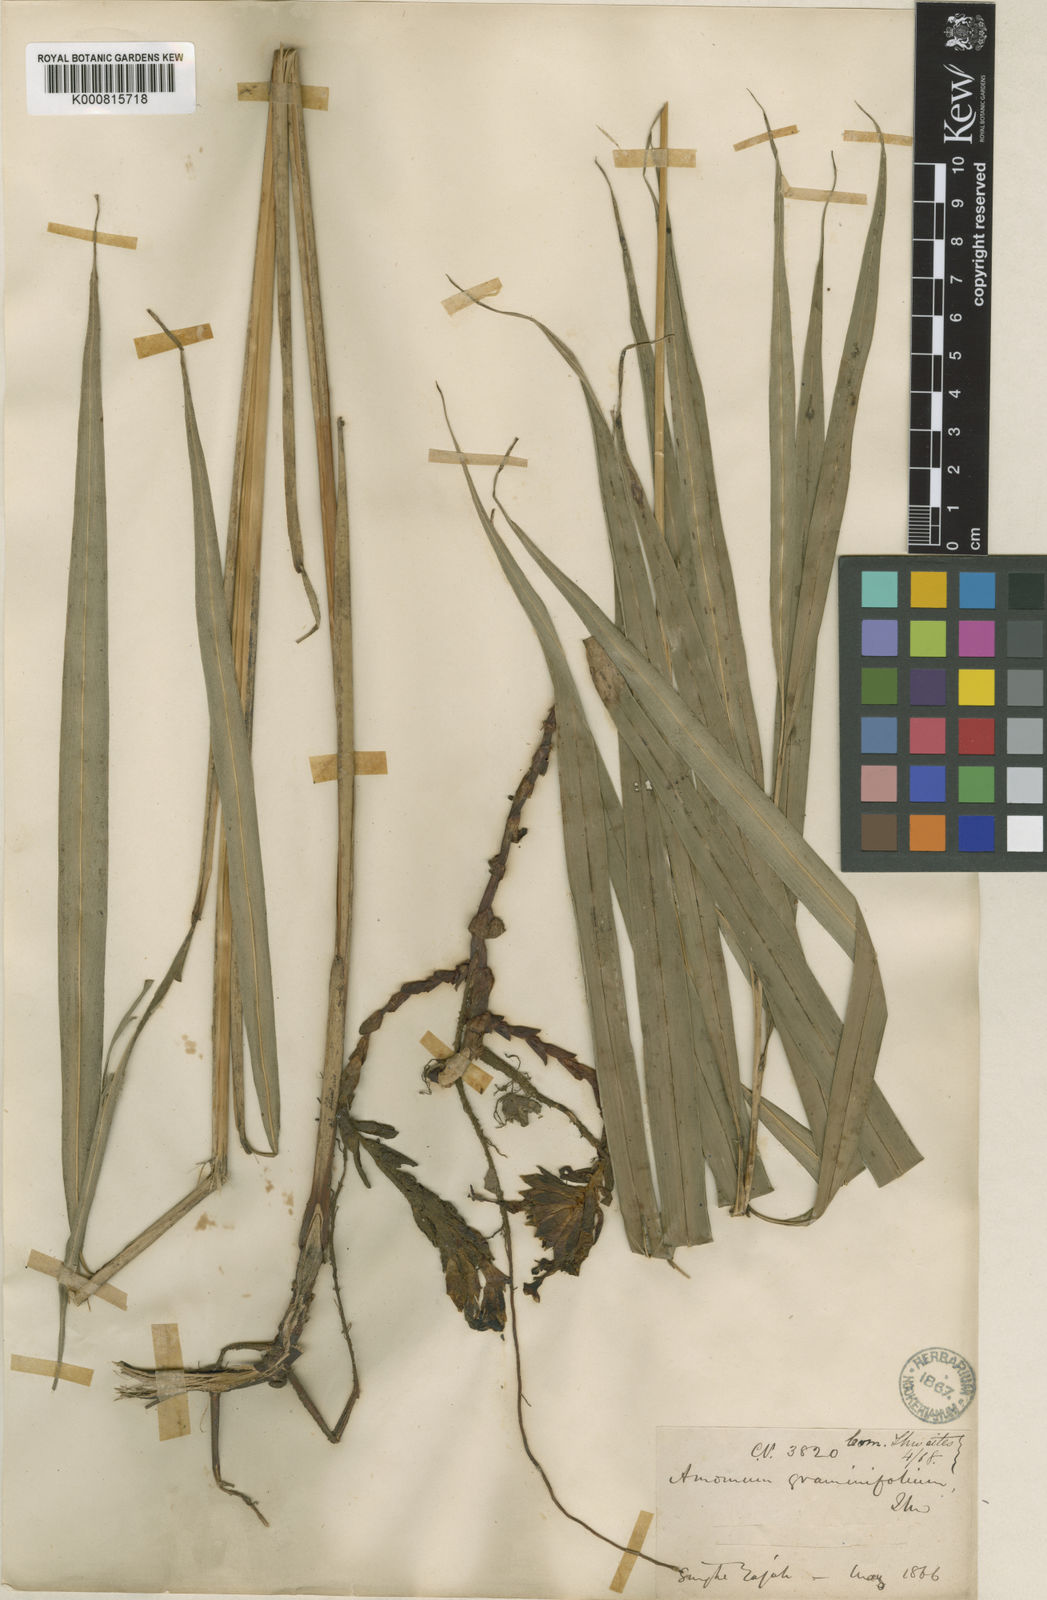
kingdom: Plantae
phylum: Tracheophyta
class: Liliopsida
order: Zingiberales
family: Zingiberaceae
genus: Meistera
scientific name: Meistera graminifolia
